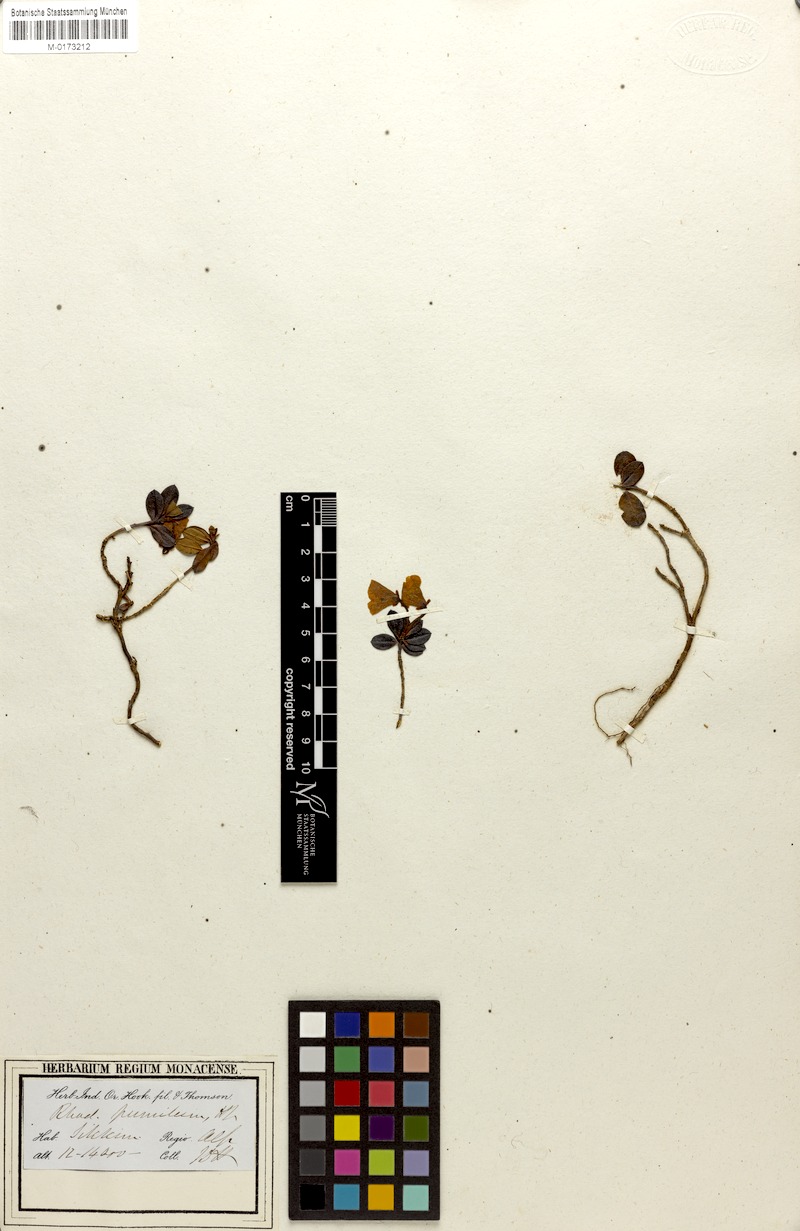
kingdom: Plantae
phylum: Tracheophyta
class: Magnoliopsida
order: Ericales
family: Ericaceae
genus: Rhododendron
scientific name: Rhododendron pumilum
